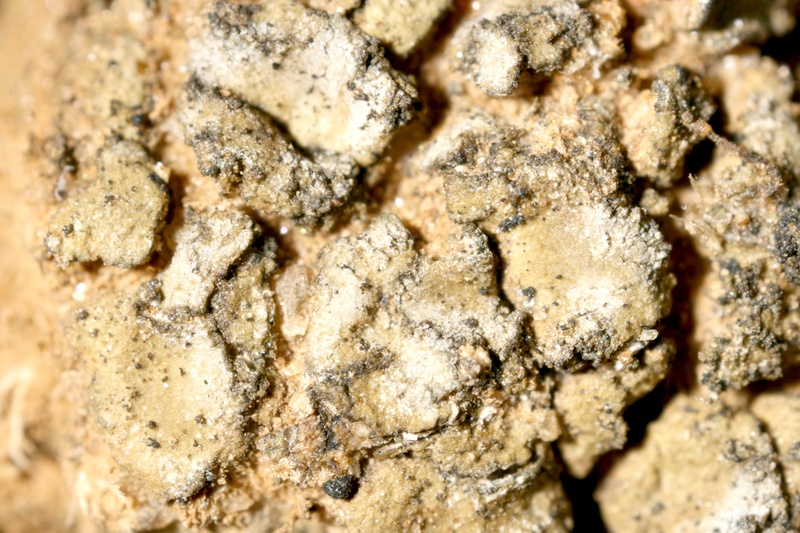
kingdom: Fungi
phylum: Ascomycota
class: Lichinomycetes
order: Lichinales
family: Lichinaceae
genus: Heppia
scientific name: Heppia despreauxii
